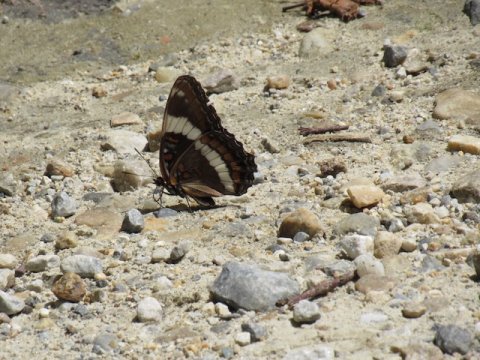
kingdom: Animalia
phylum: Arthropoda
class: Insecta
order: Lepidoptera
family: Nymphalidae
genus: Limenitis
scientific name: Limenitis arthemis
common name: Red-spotted Admiral
